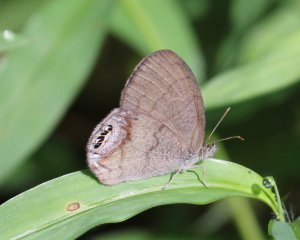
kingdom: Animalia
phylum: Arthropoda
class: Insecta
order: Lepidoptera
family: Nymphalidae
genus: Euptychia
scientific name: Euptychia cornelius
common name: Gemmed Satyr
